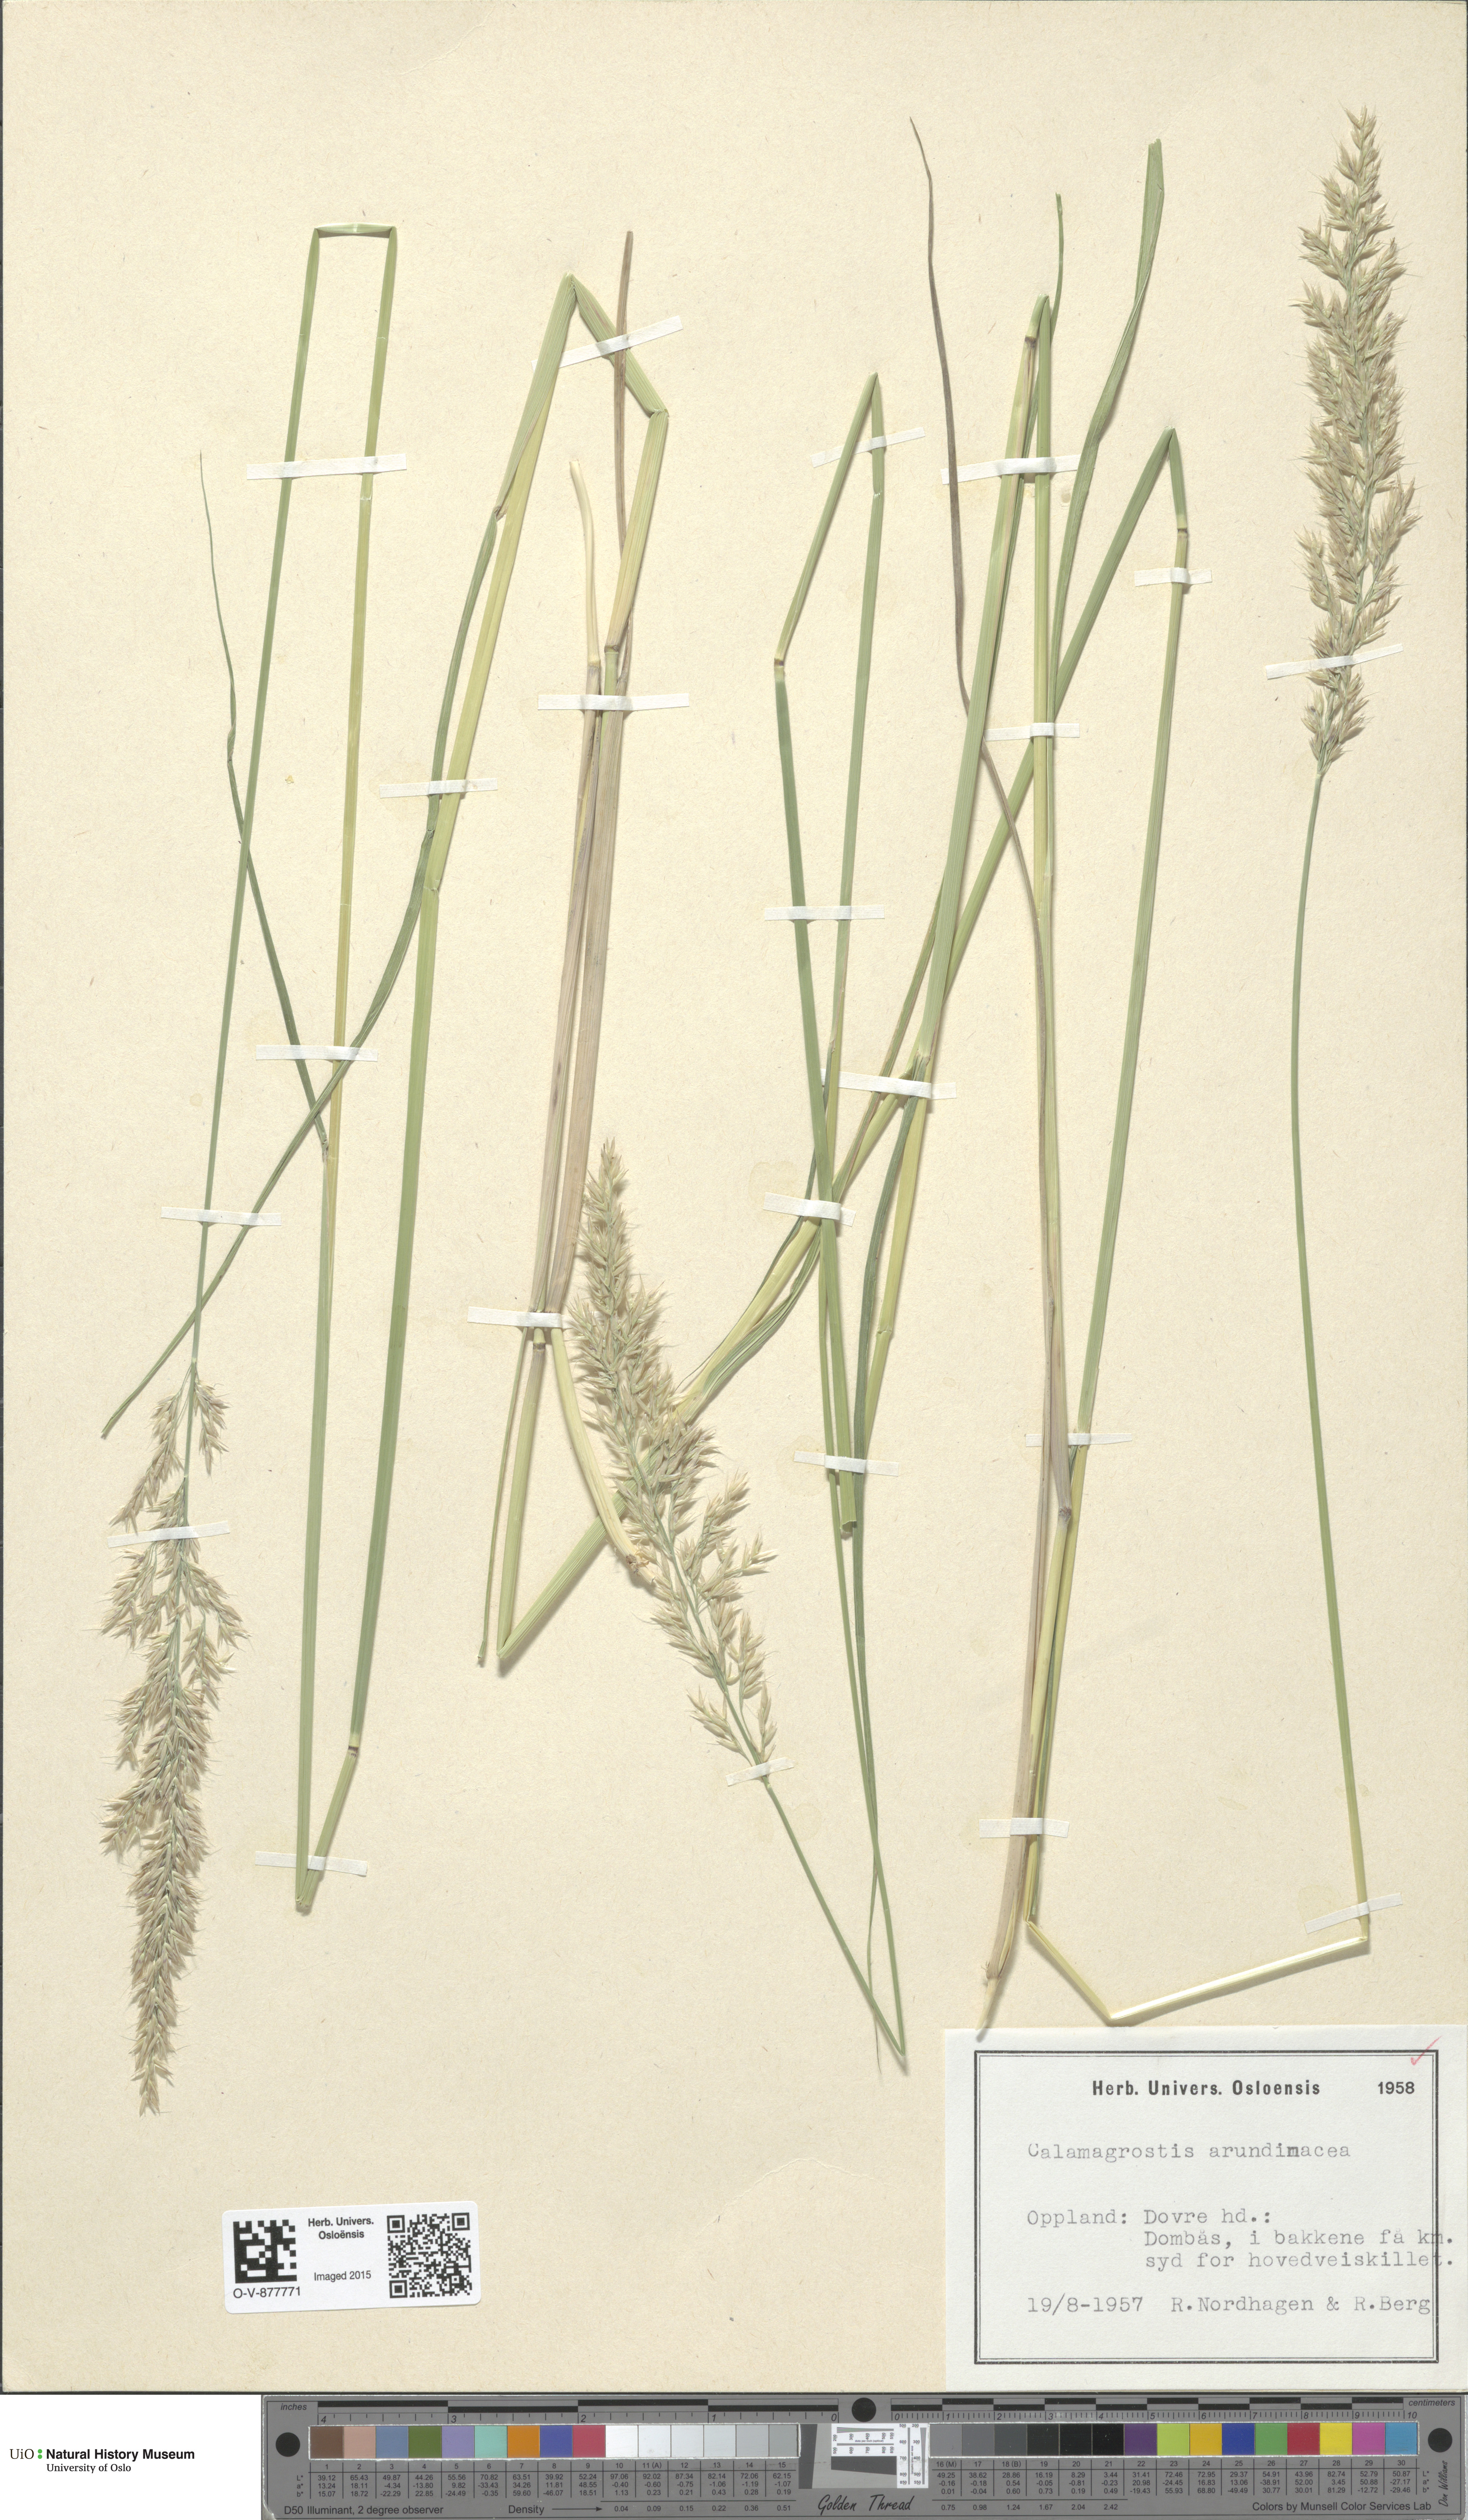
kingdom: Plantae
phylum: Tracheophyta
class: Liliopsida
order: Poales
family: Poaceae
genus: Calamagrostis
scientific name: Calamagrostis arundinacea
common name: Metskastik
